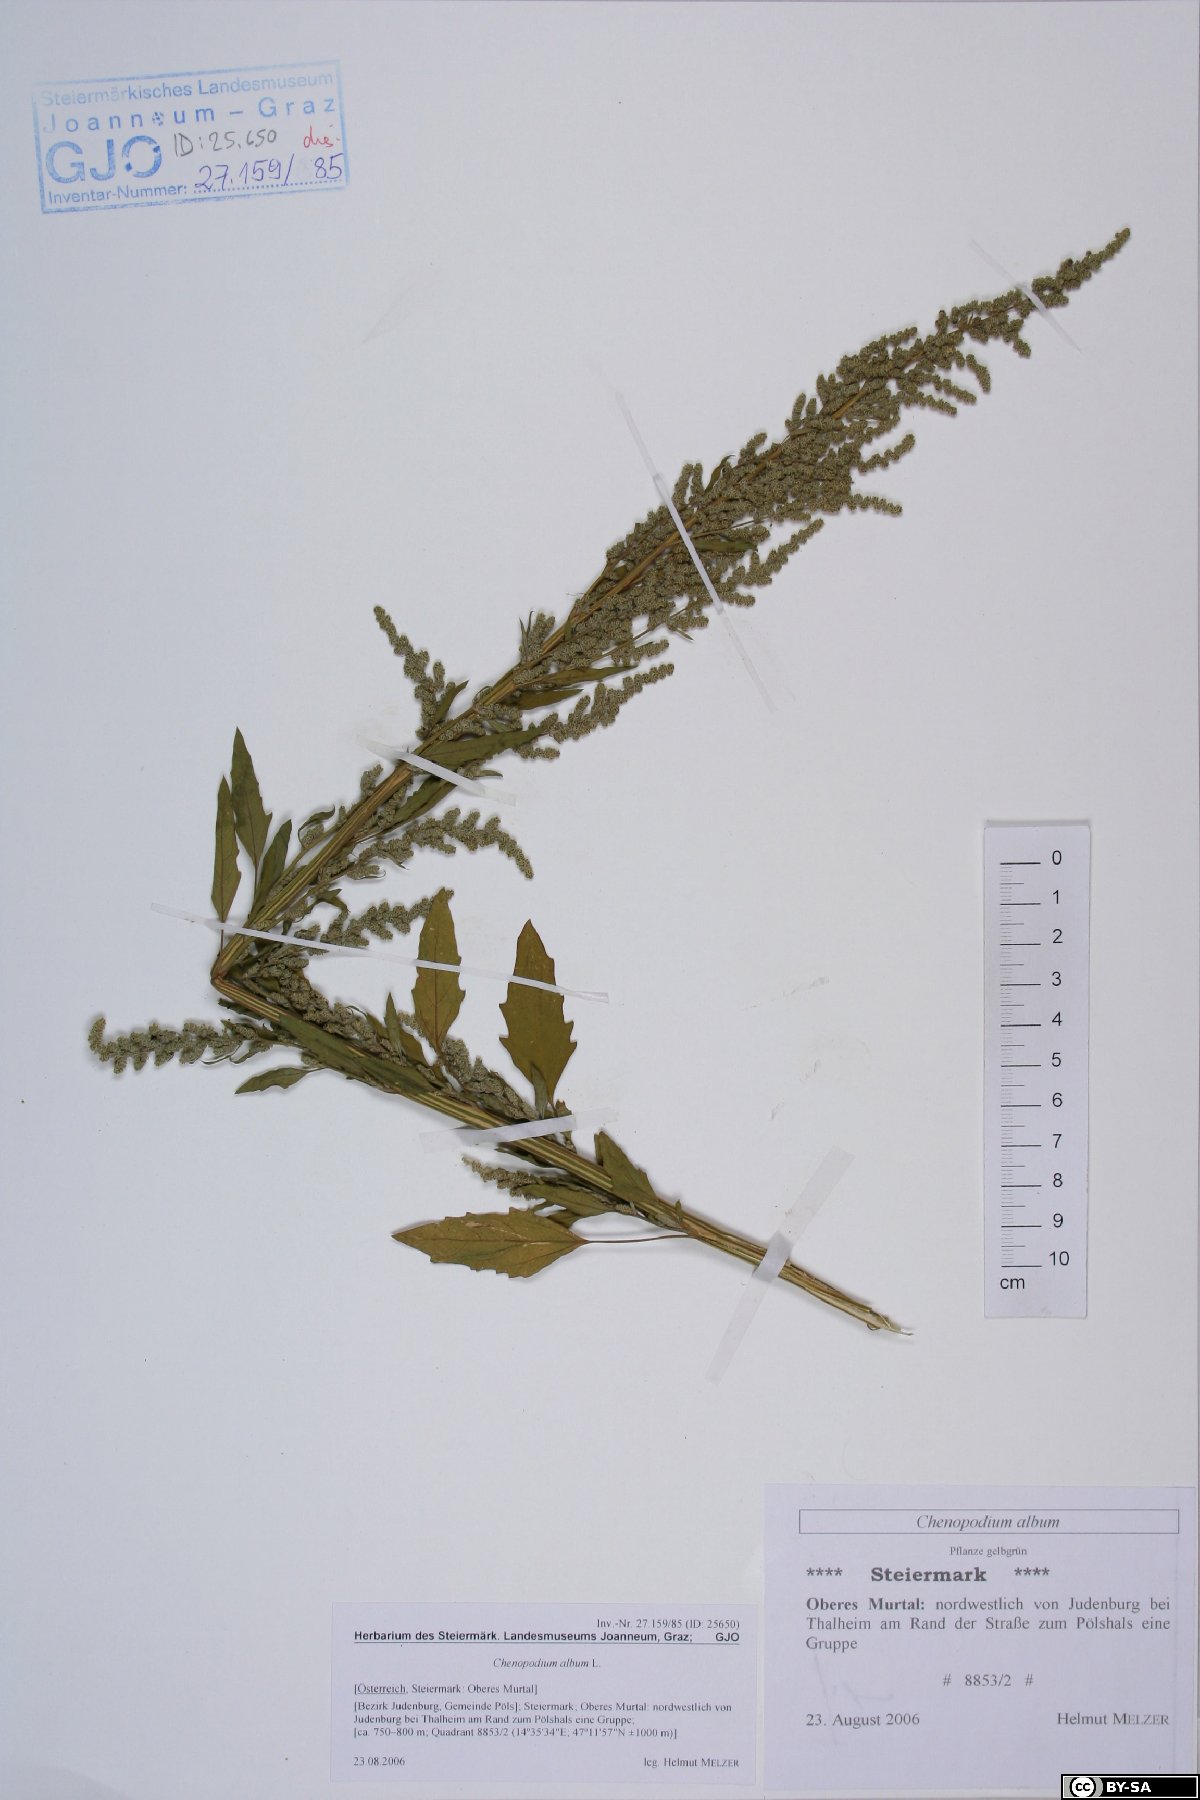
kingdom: Plantae
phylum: Tracheophyta
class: Magnoliopsida
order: Caryophyllales
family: Amaranthaceae
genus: Chenopodium
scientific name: Chenopodium album
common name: Fat-hen
